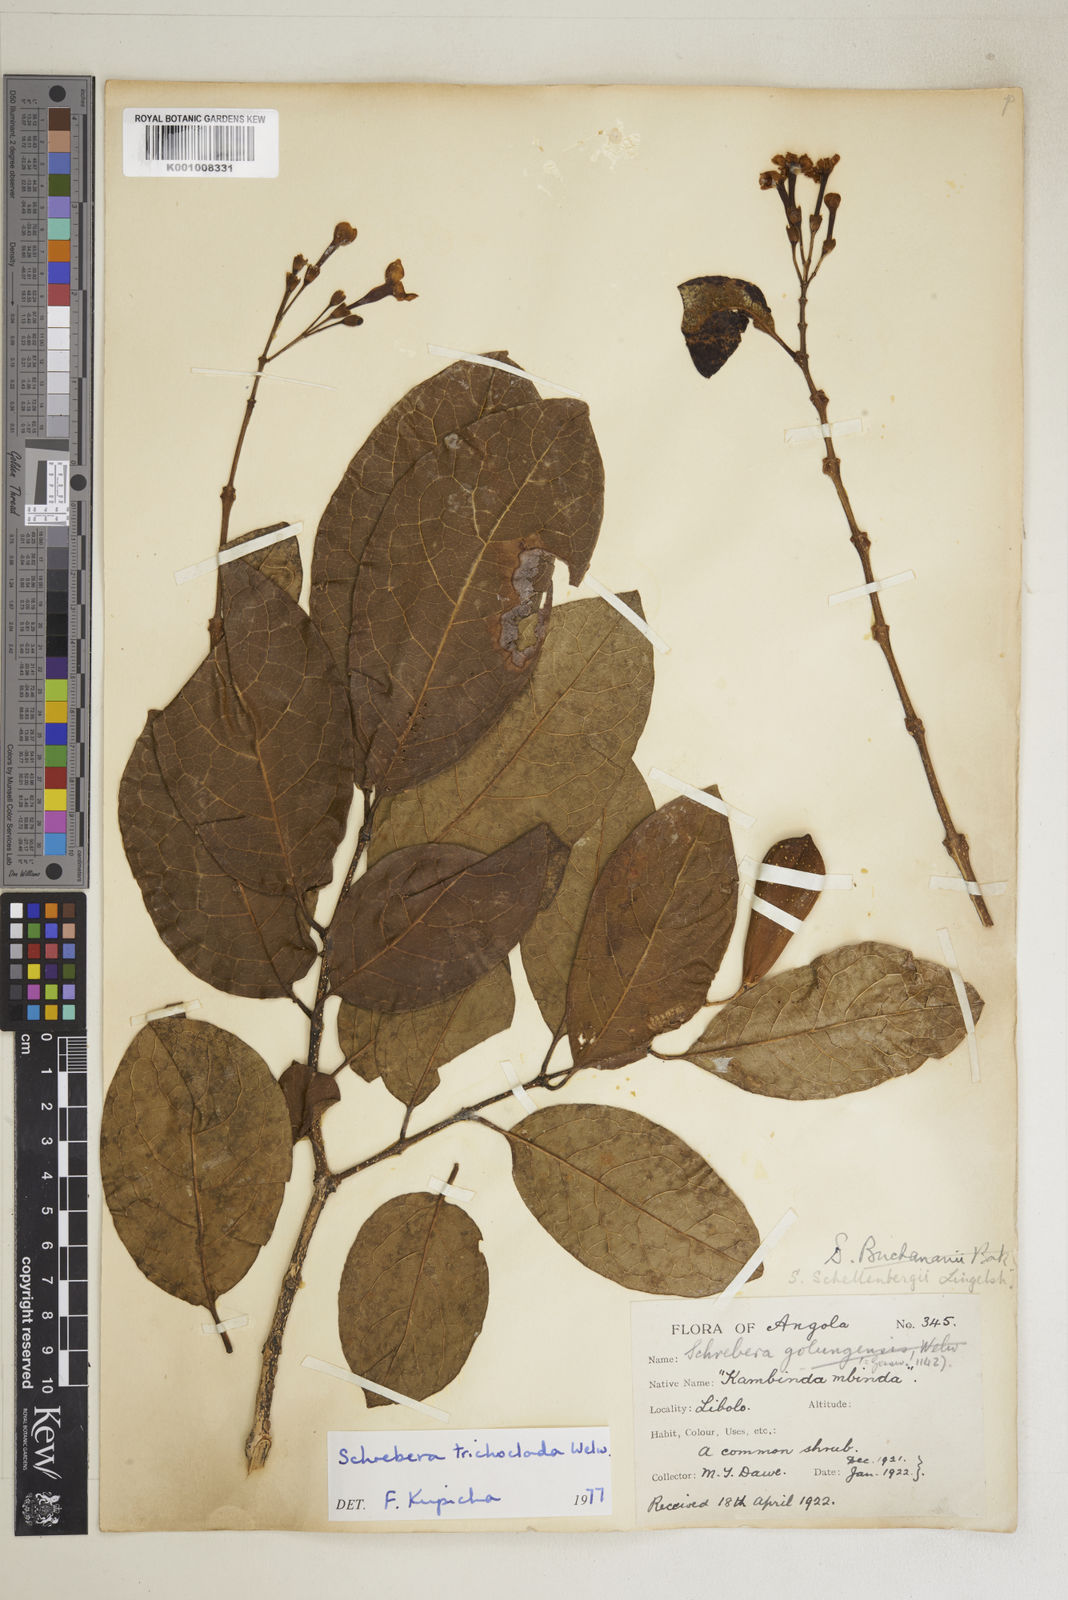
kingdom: Plantae
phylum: Tracheophyta
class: Magnoliopsida
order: Lamiales
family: Oleaceae
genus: Schrebera
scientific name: Schrebera trichoclada
